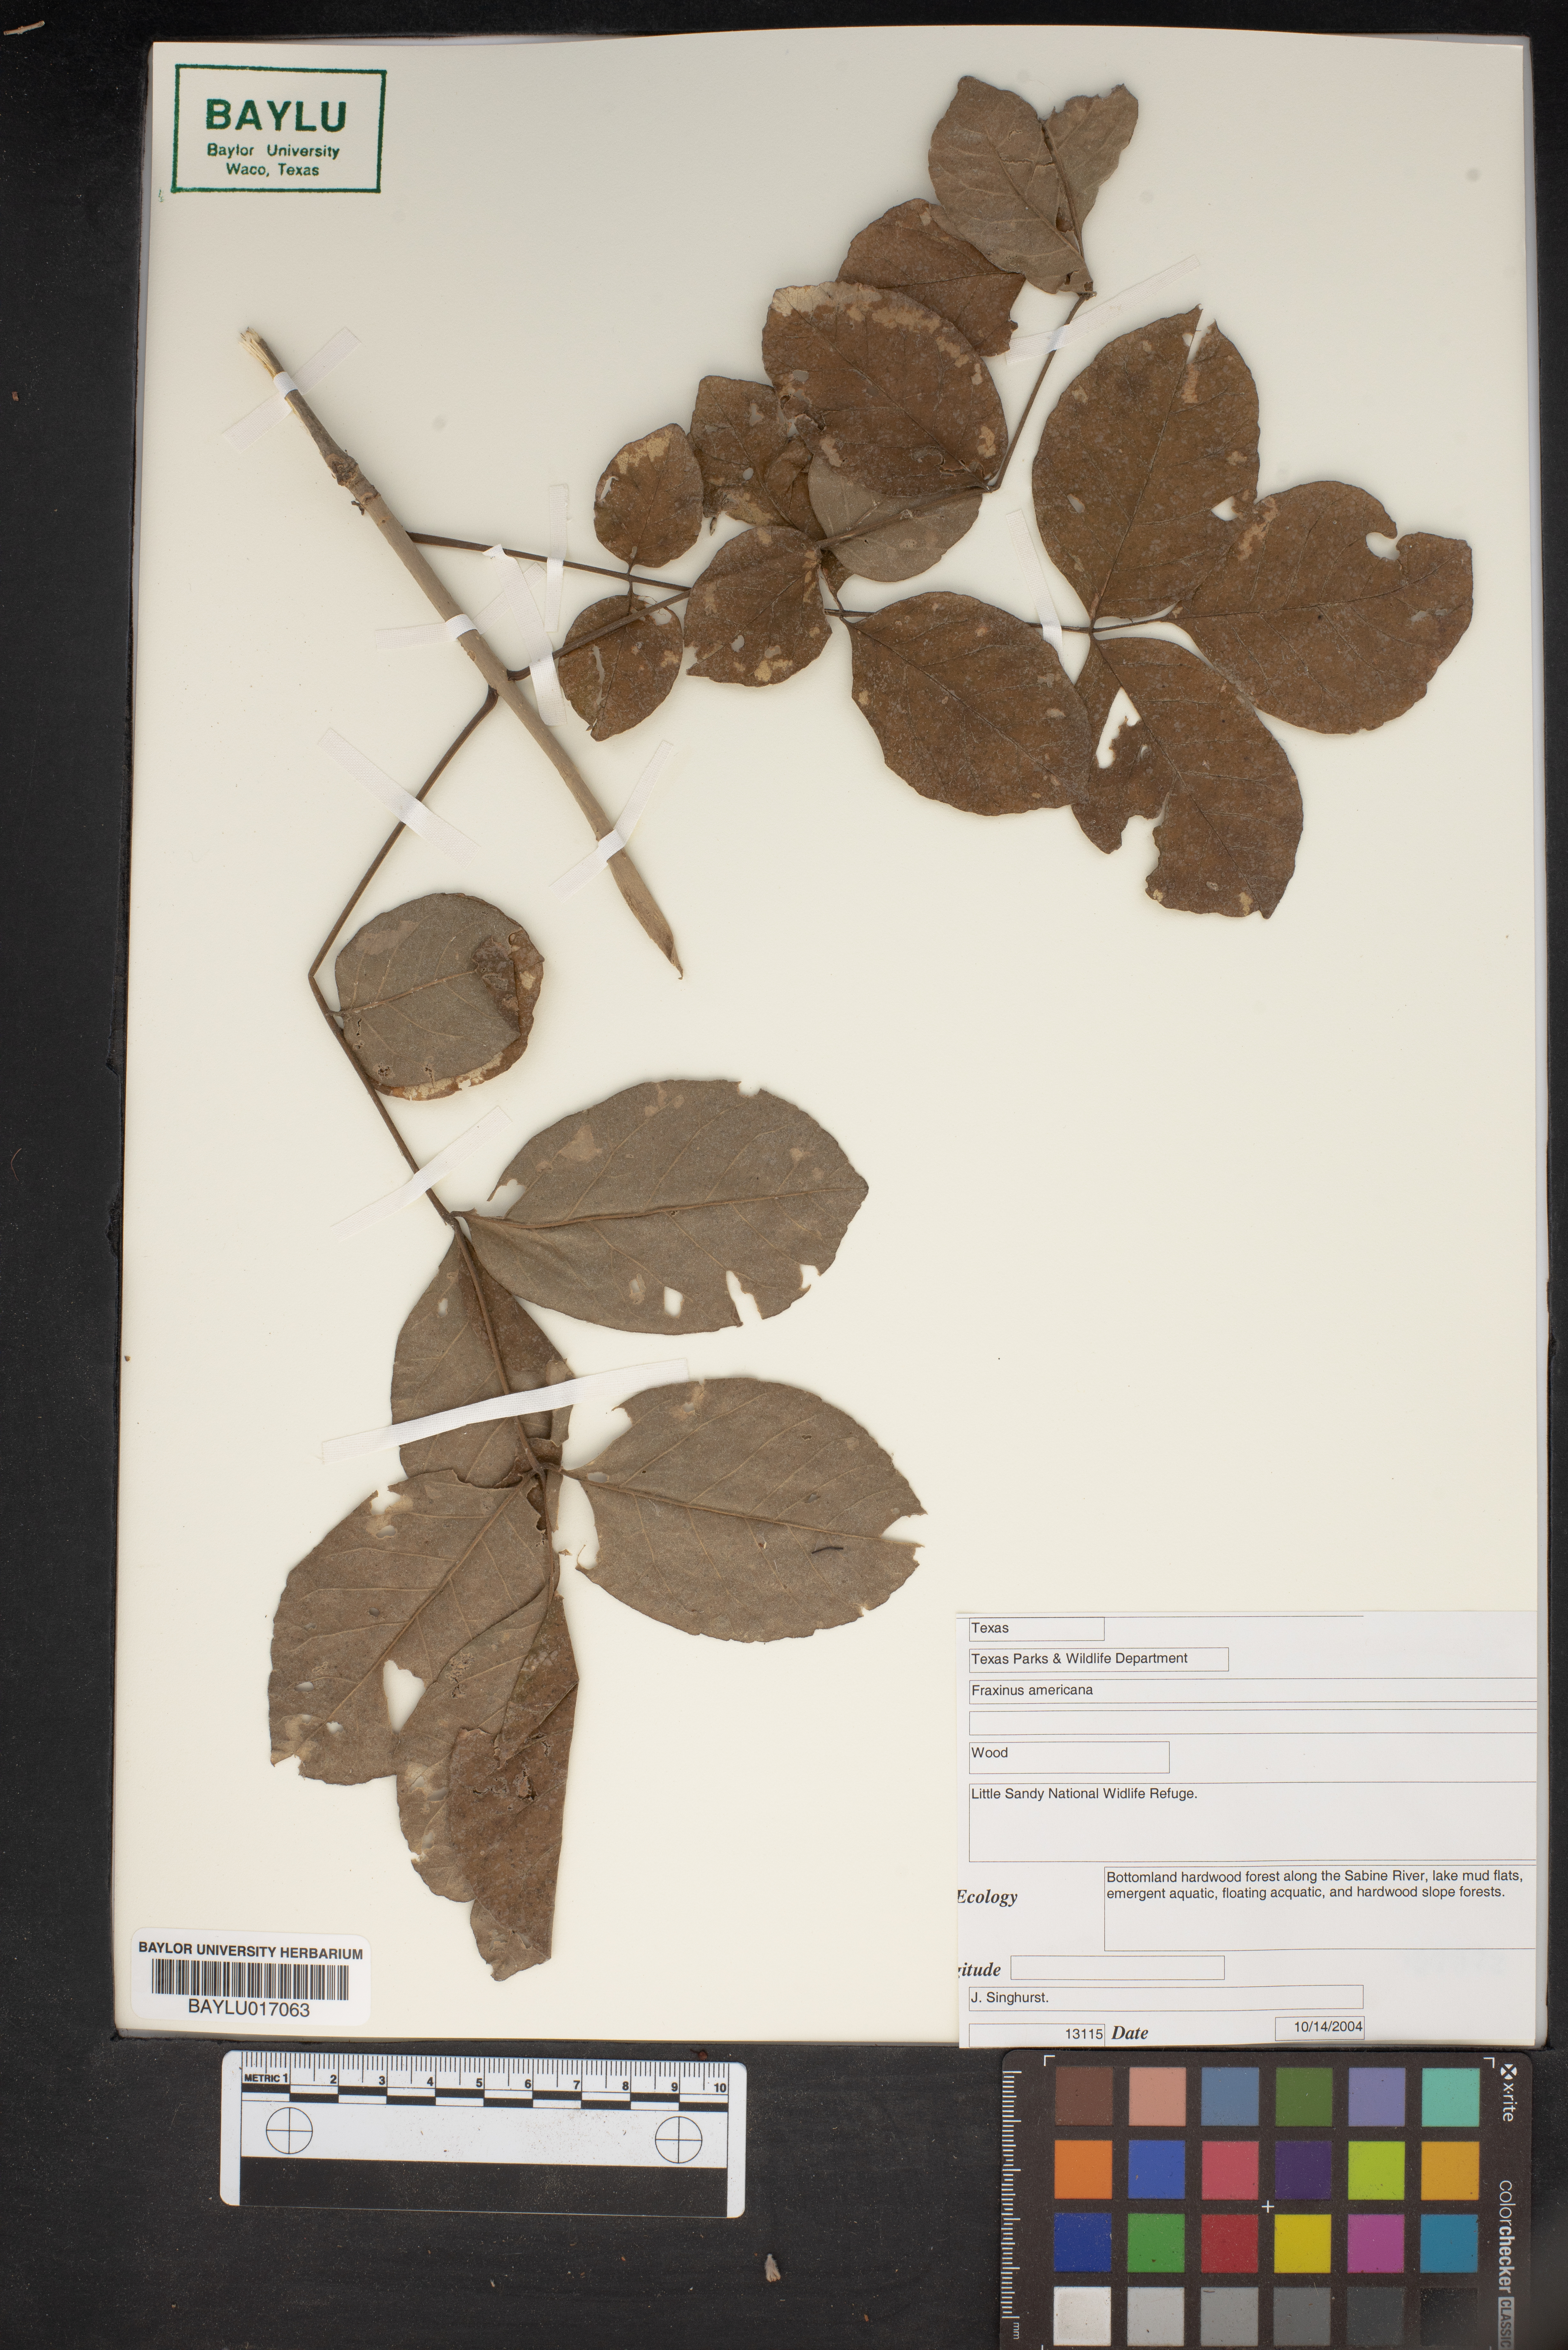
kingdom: Plantae
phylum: Tracheophyta
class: Magnoliopsida
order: Lamiales
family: Oleaceae
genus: Fraxinus
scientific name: Fraxinus americana
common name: White ash
